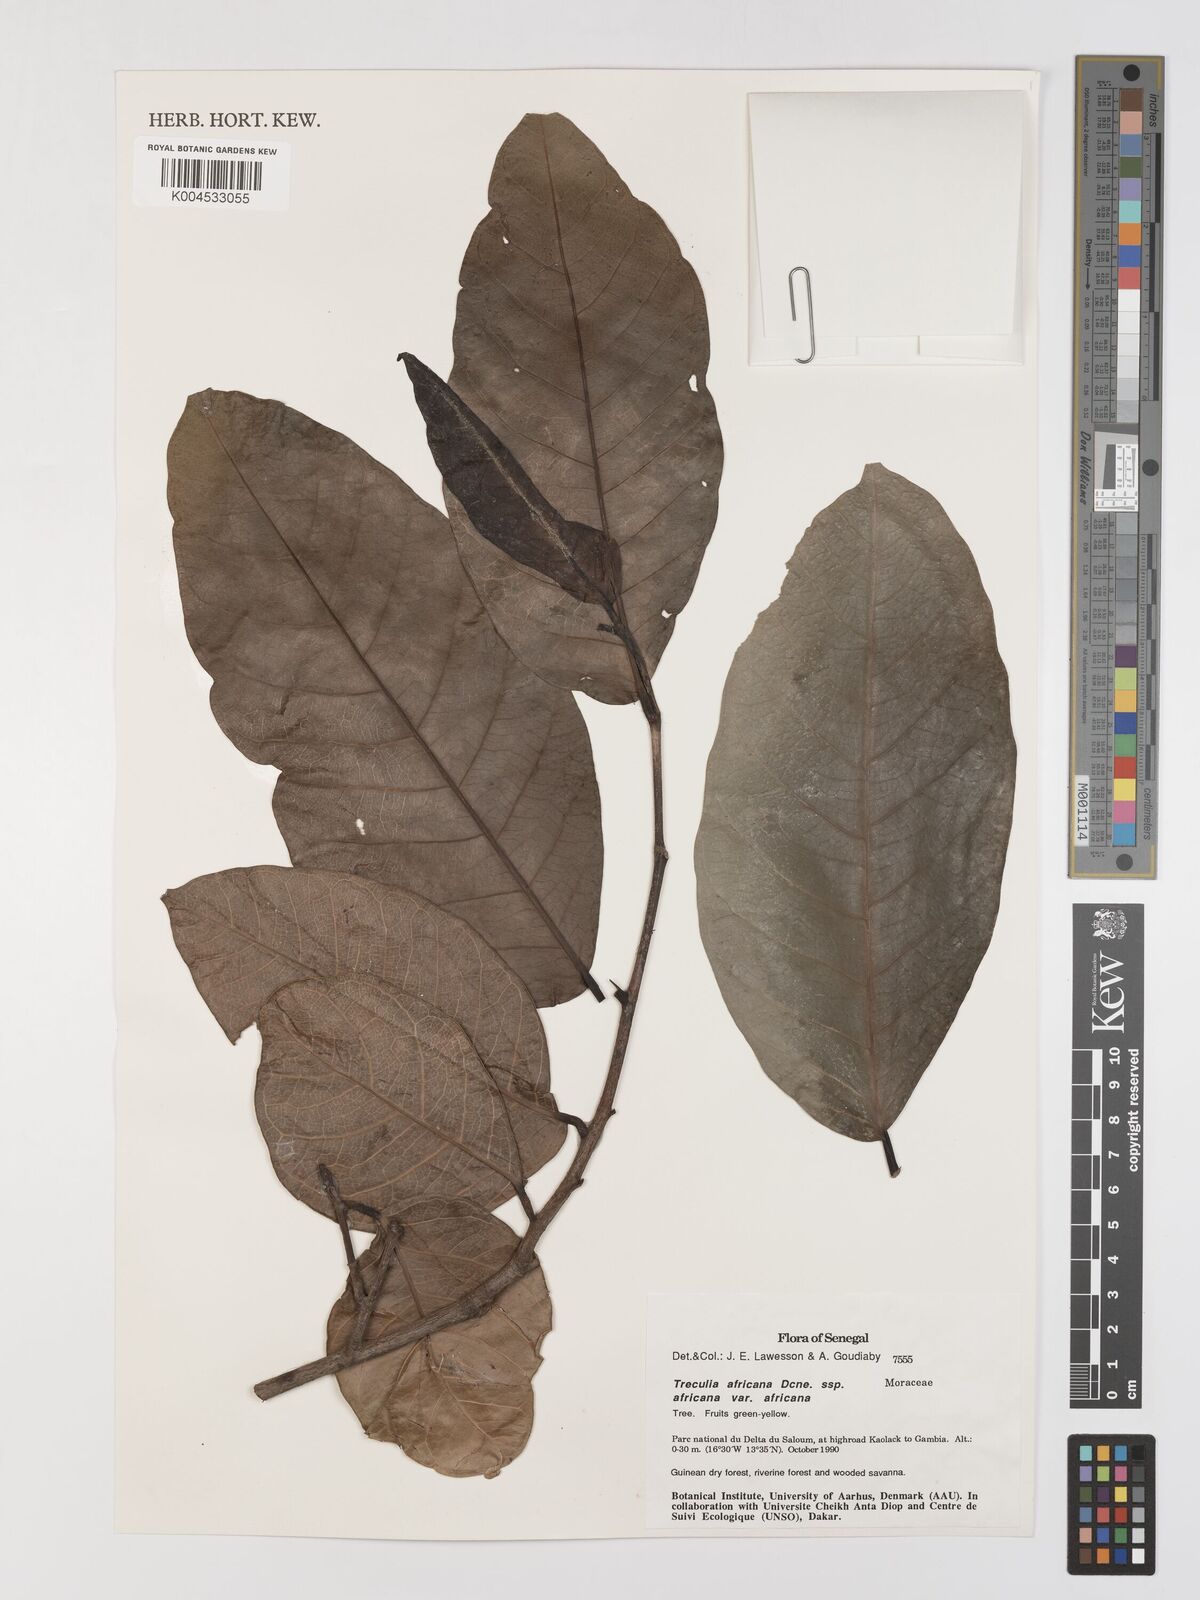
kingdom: Plantae
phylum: Tracheophyta
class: Magnoliopsida
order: Rosales
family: Moraceae
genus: Treculia
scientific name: Treculia africana
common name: African breadfruit
